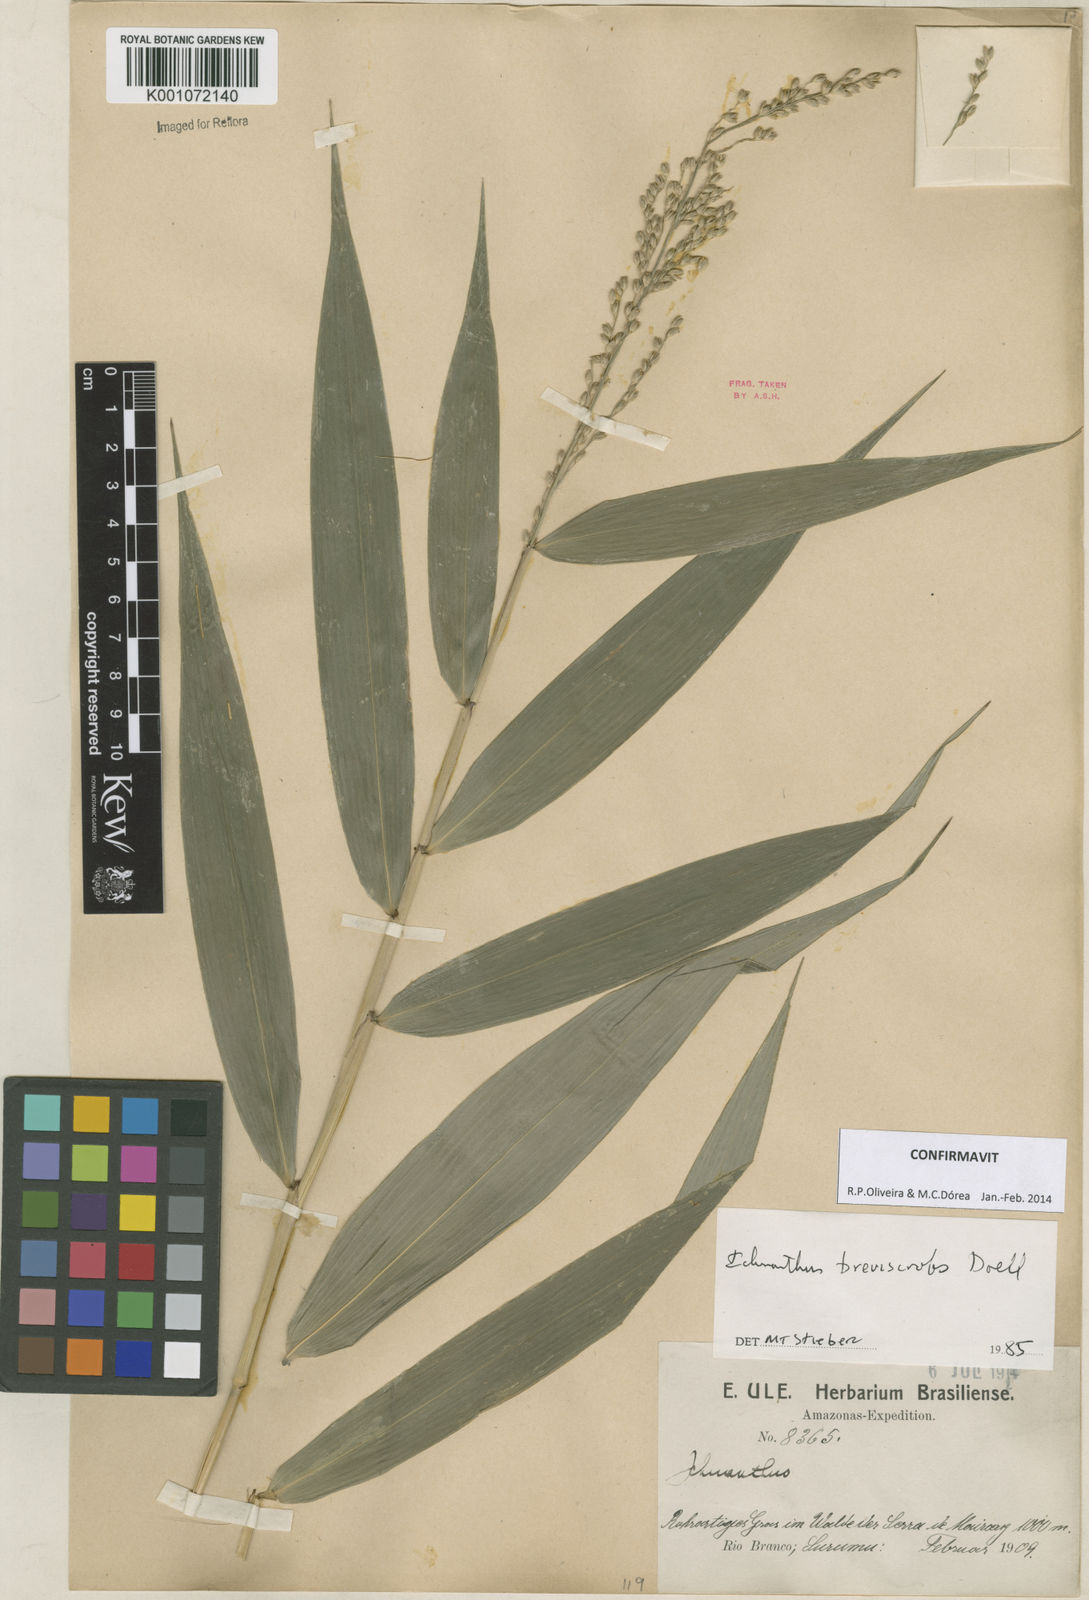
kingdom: Plantae
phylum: Tracheophyta
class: Liliopsida
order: Poales
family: Poaceae
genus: Ichnanthus
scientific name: Ichnanthus
